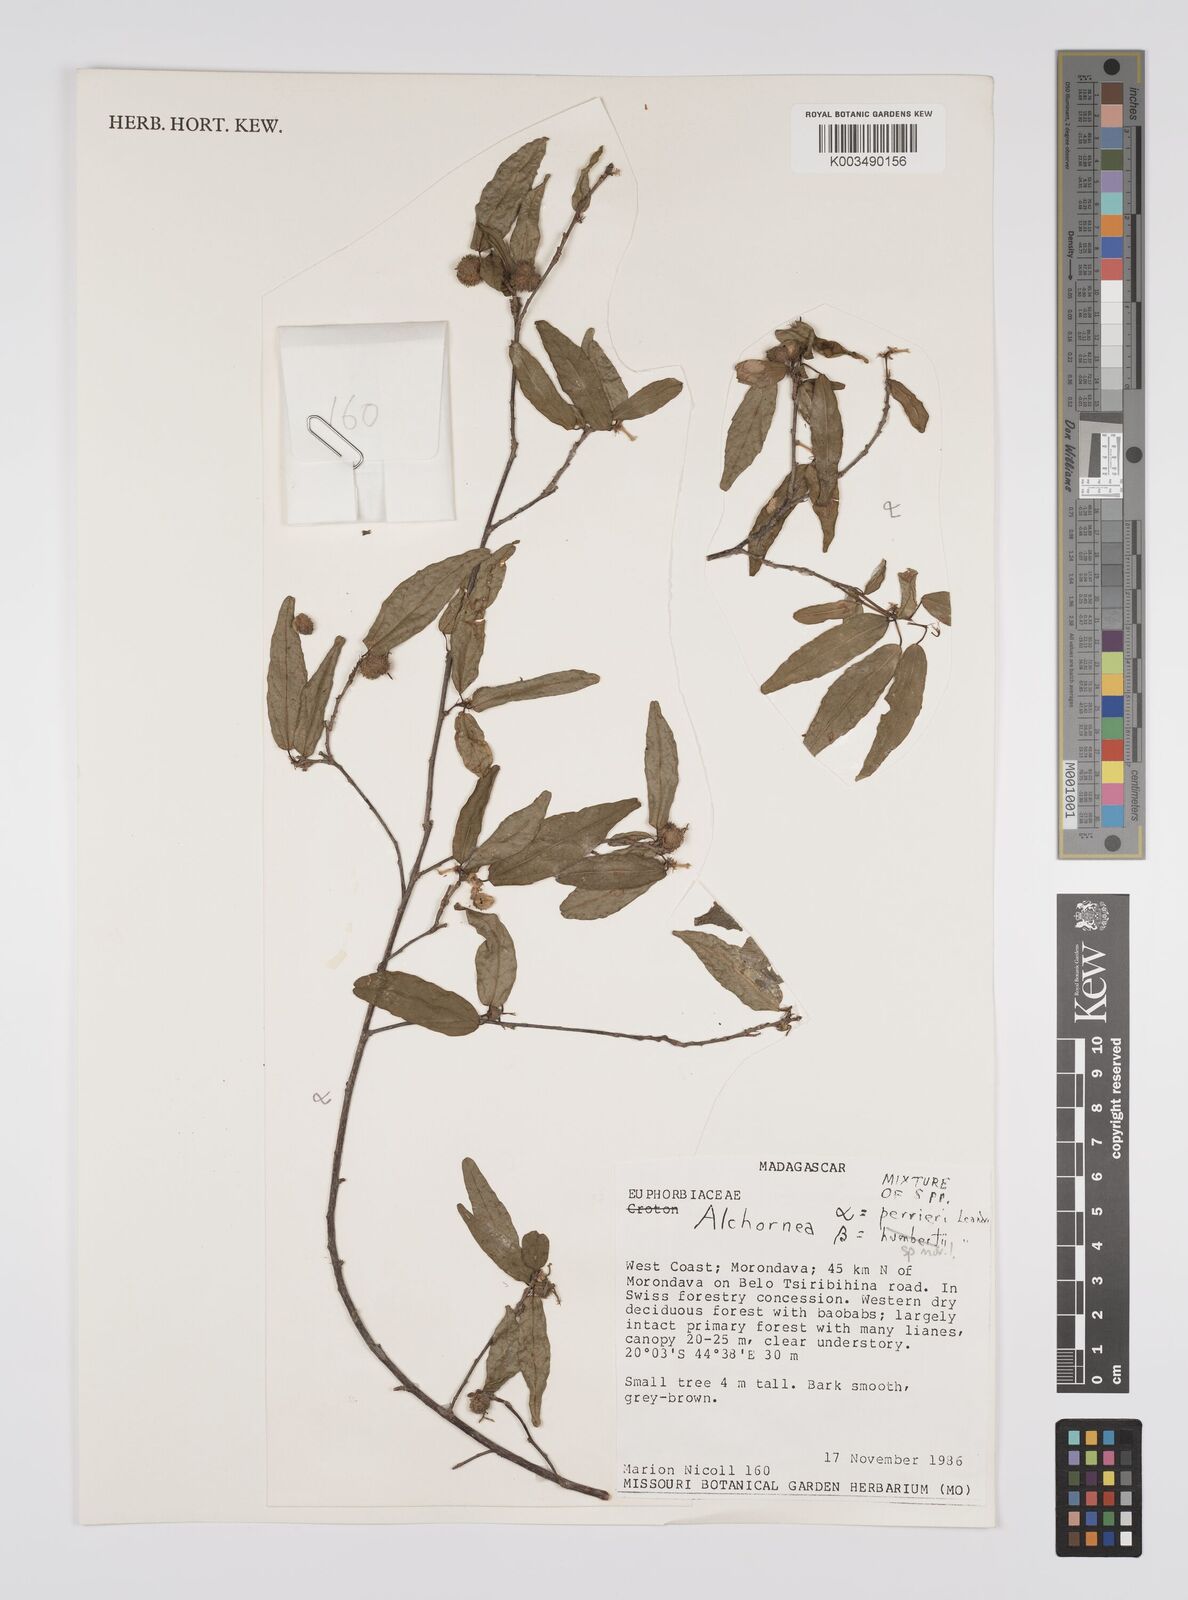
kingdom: Plantae
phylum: Tracheophyta
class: Magnoliopsida
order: Malpighiales
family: Euphorbiaceae
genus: Alchornea
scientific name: Alchornea perrieri
